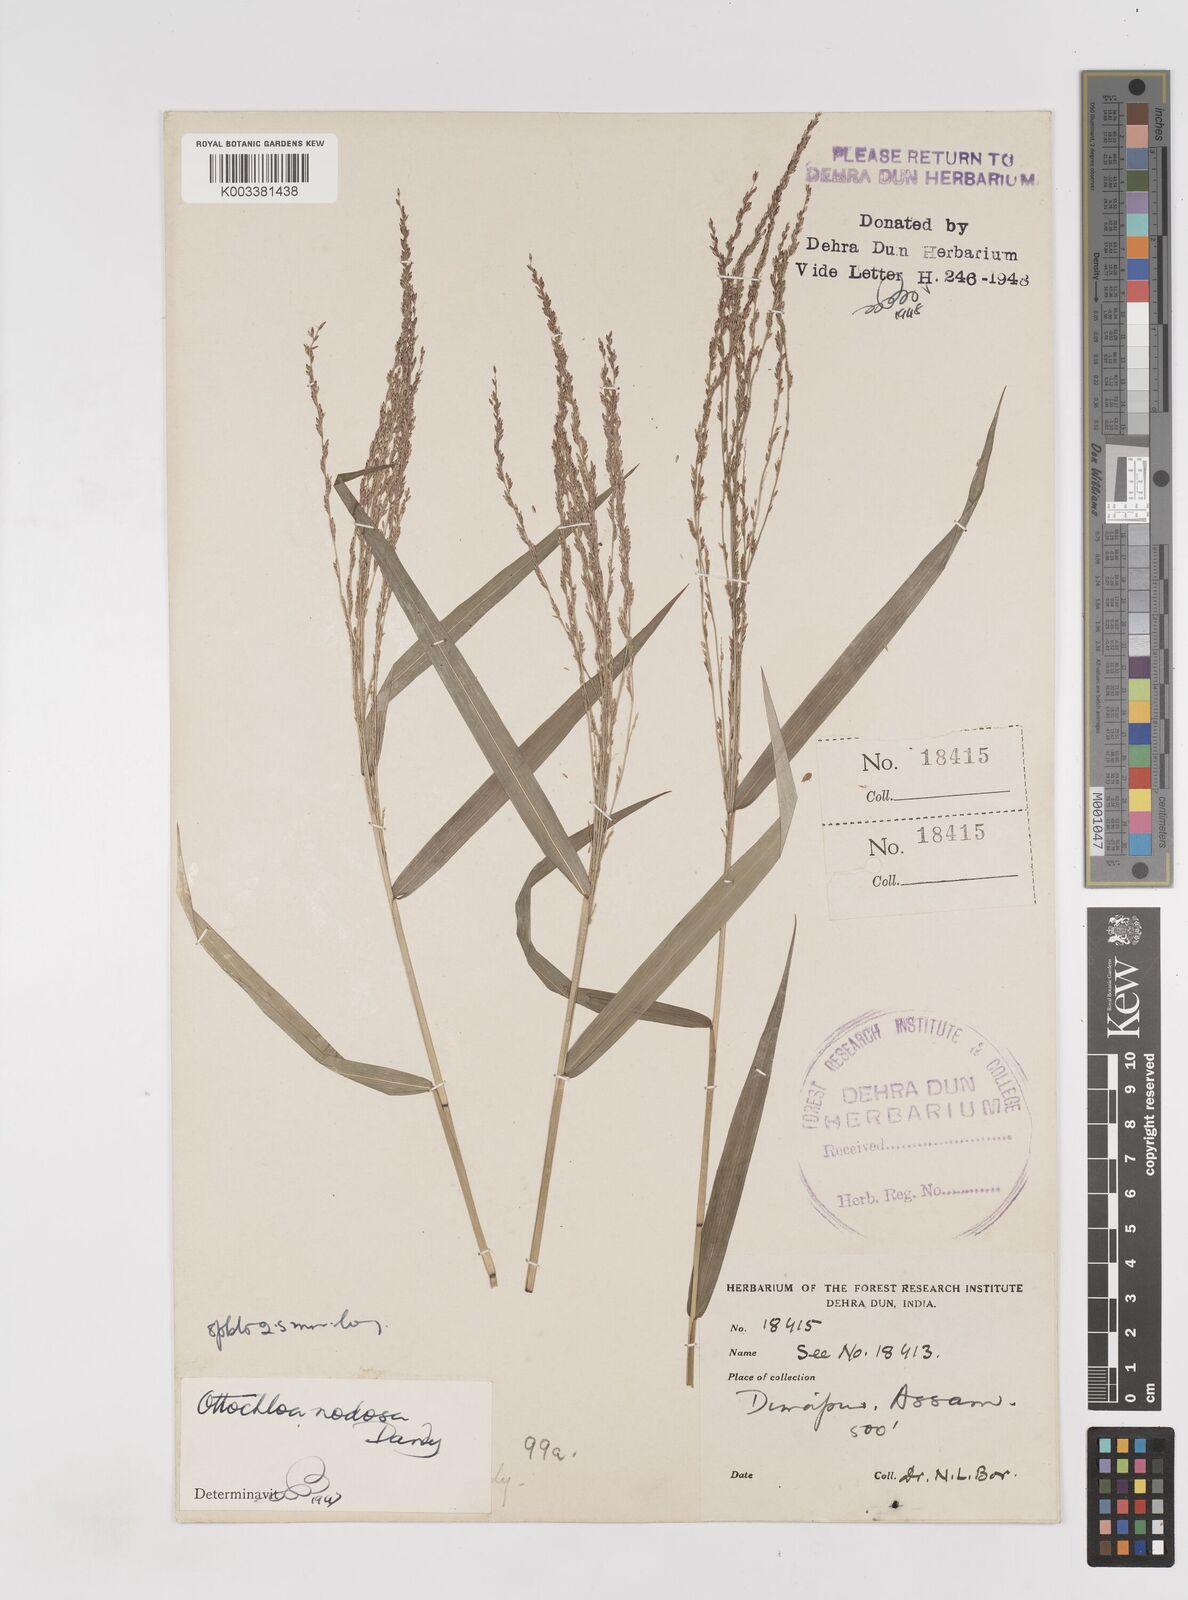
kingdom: Plantae
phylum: Tracheophyta
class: Liliopsida
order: Poales
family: Poaceae
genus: Ottochloa
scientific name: Ottochloa nodosa
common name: Slender-panic grass
